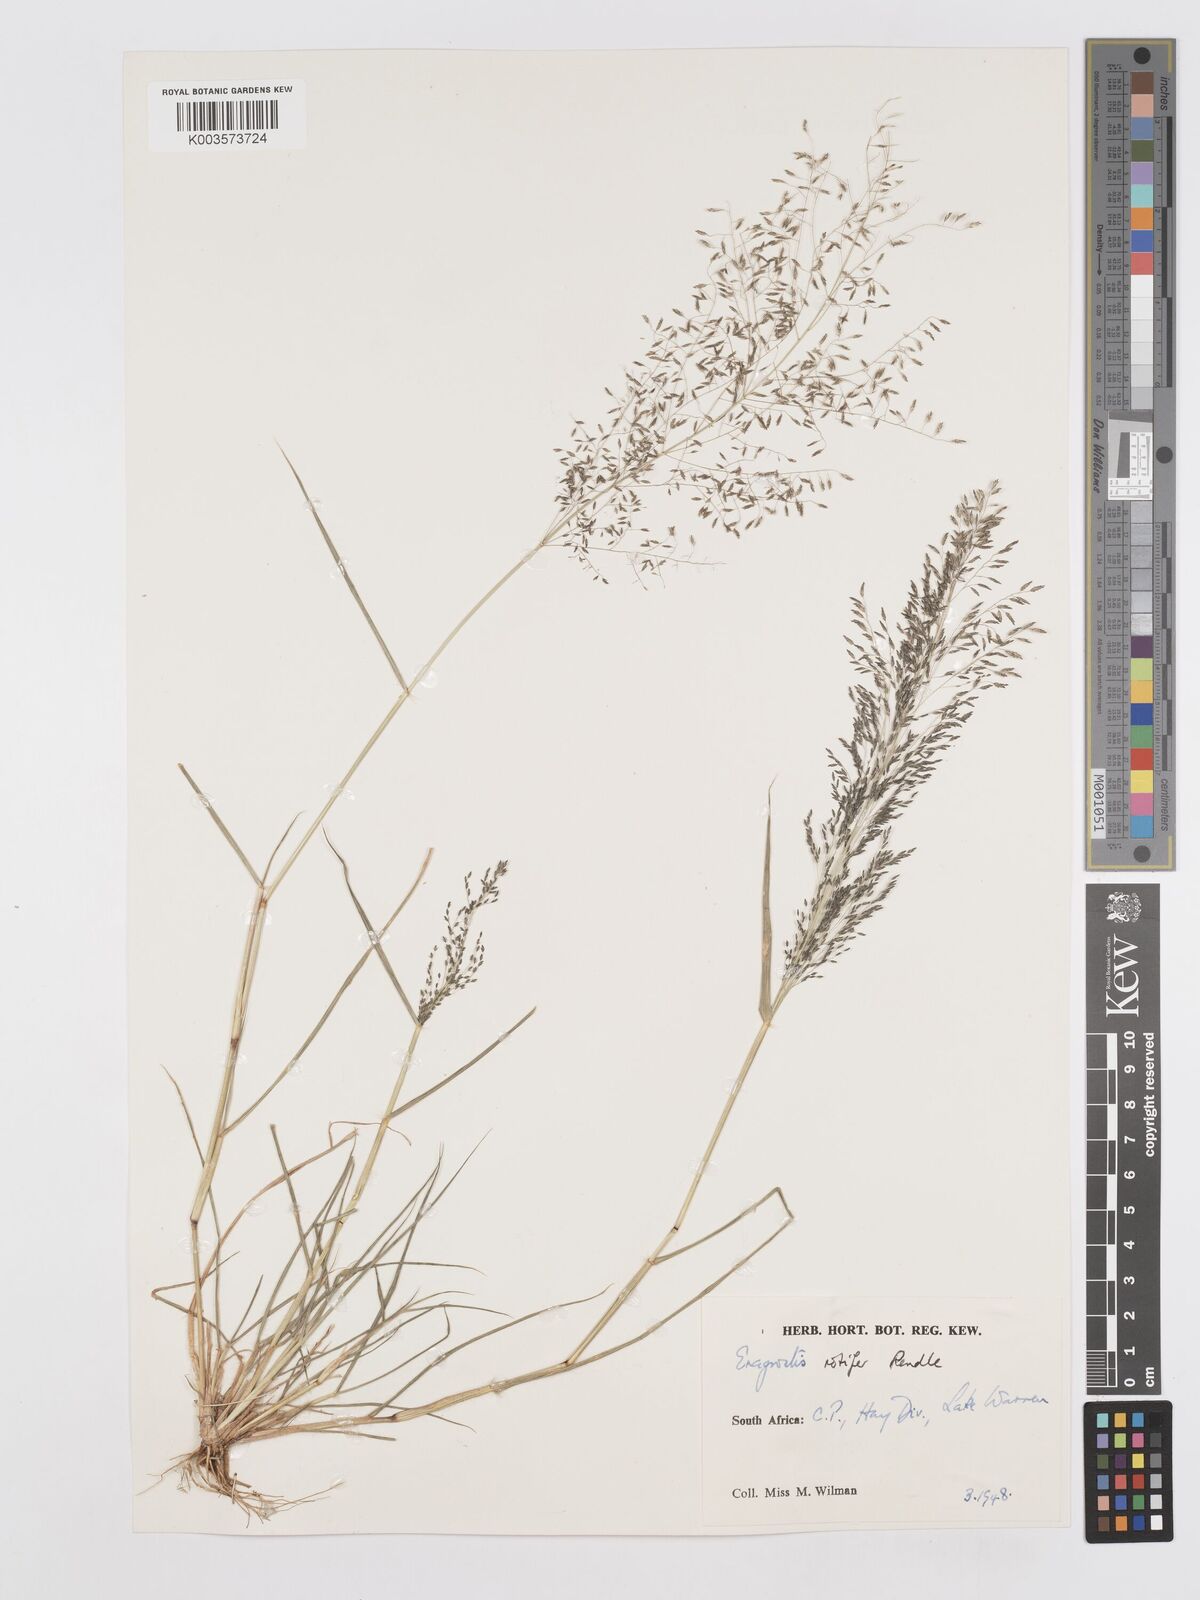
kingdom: Plantae
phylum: Tracheophyta
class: Liliopsida
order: Poales
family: Poaceae
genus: Eragrostis
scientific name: Eragrostis rotifer
